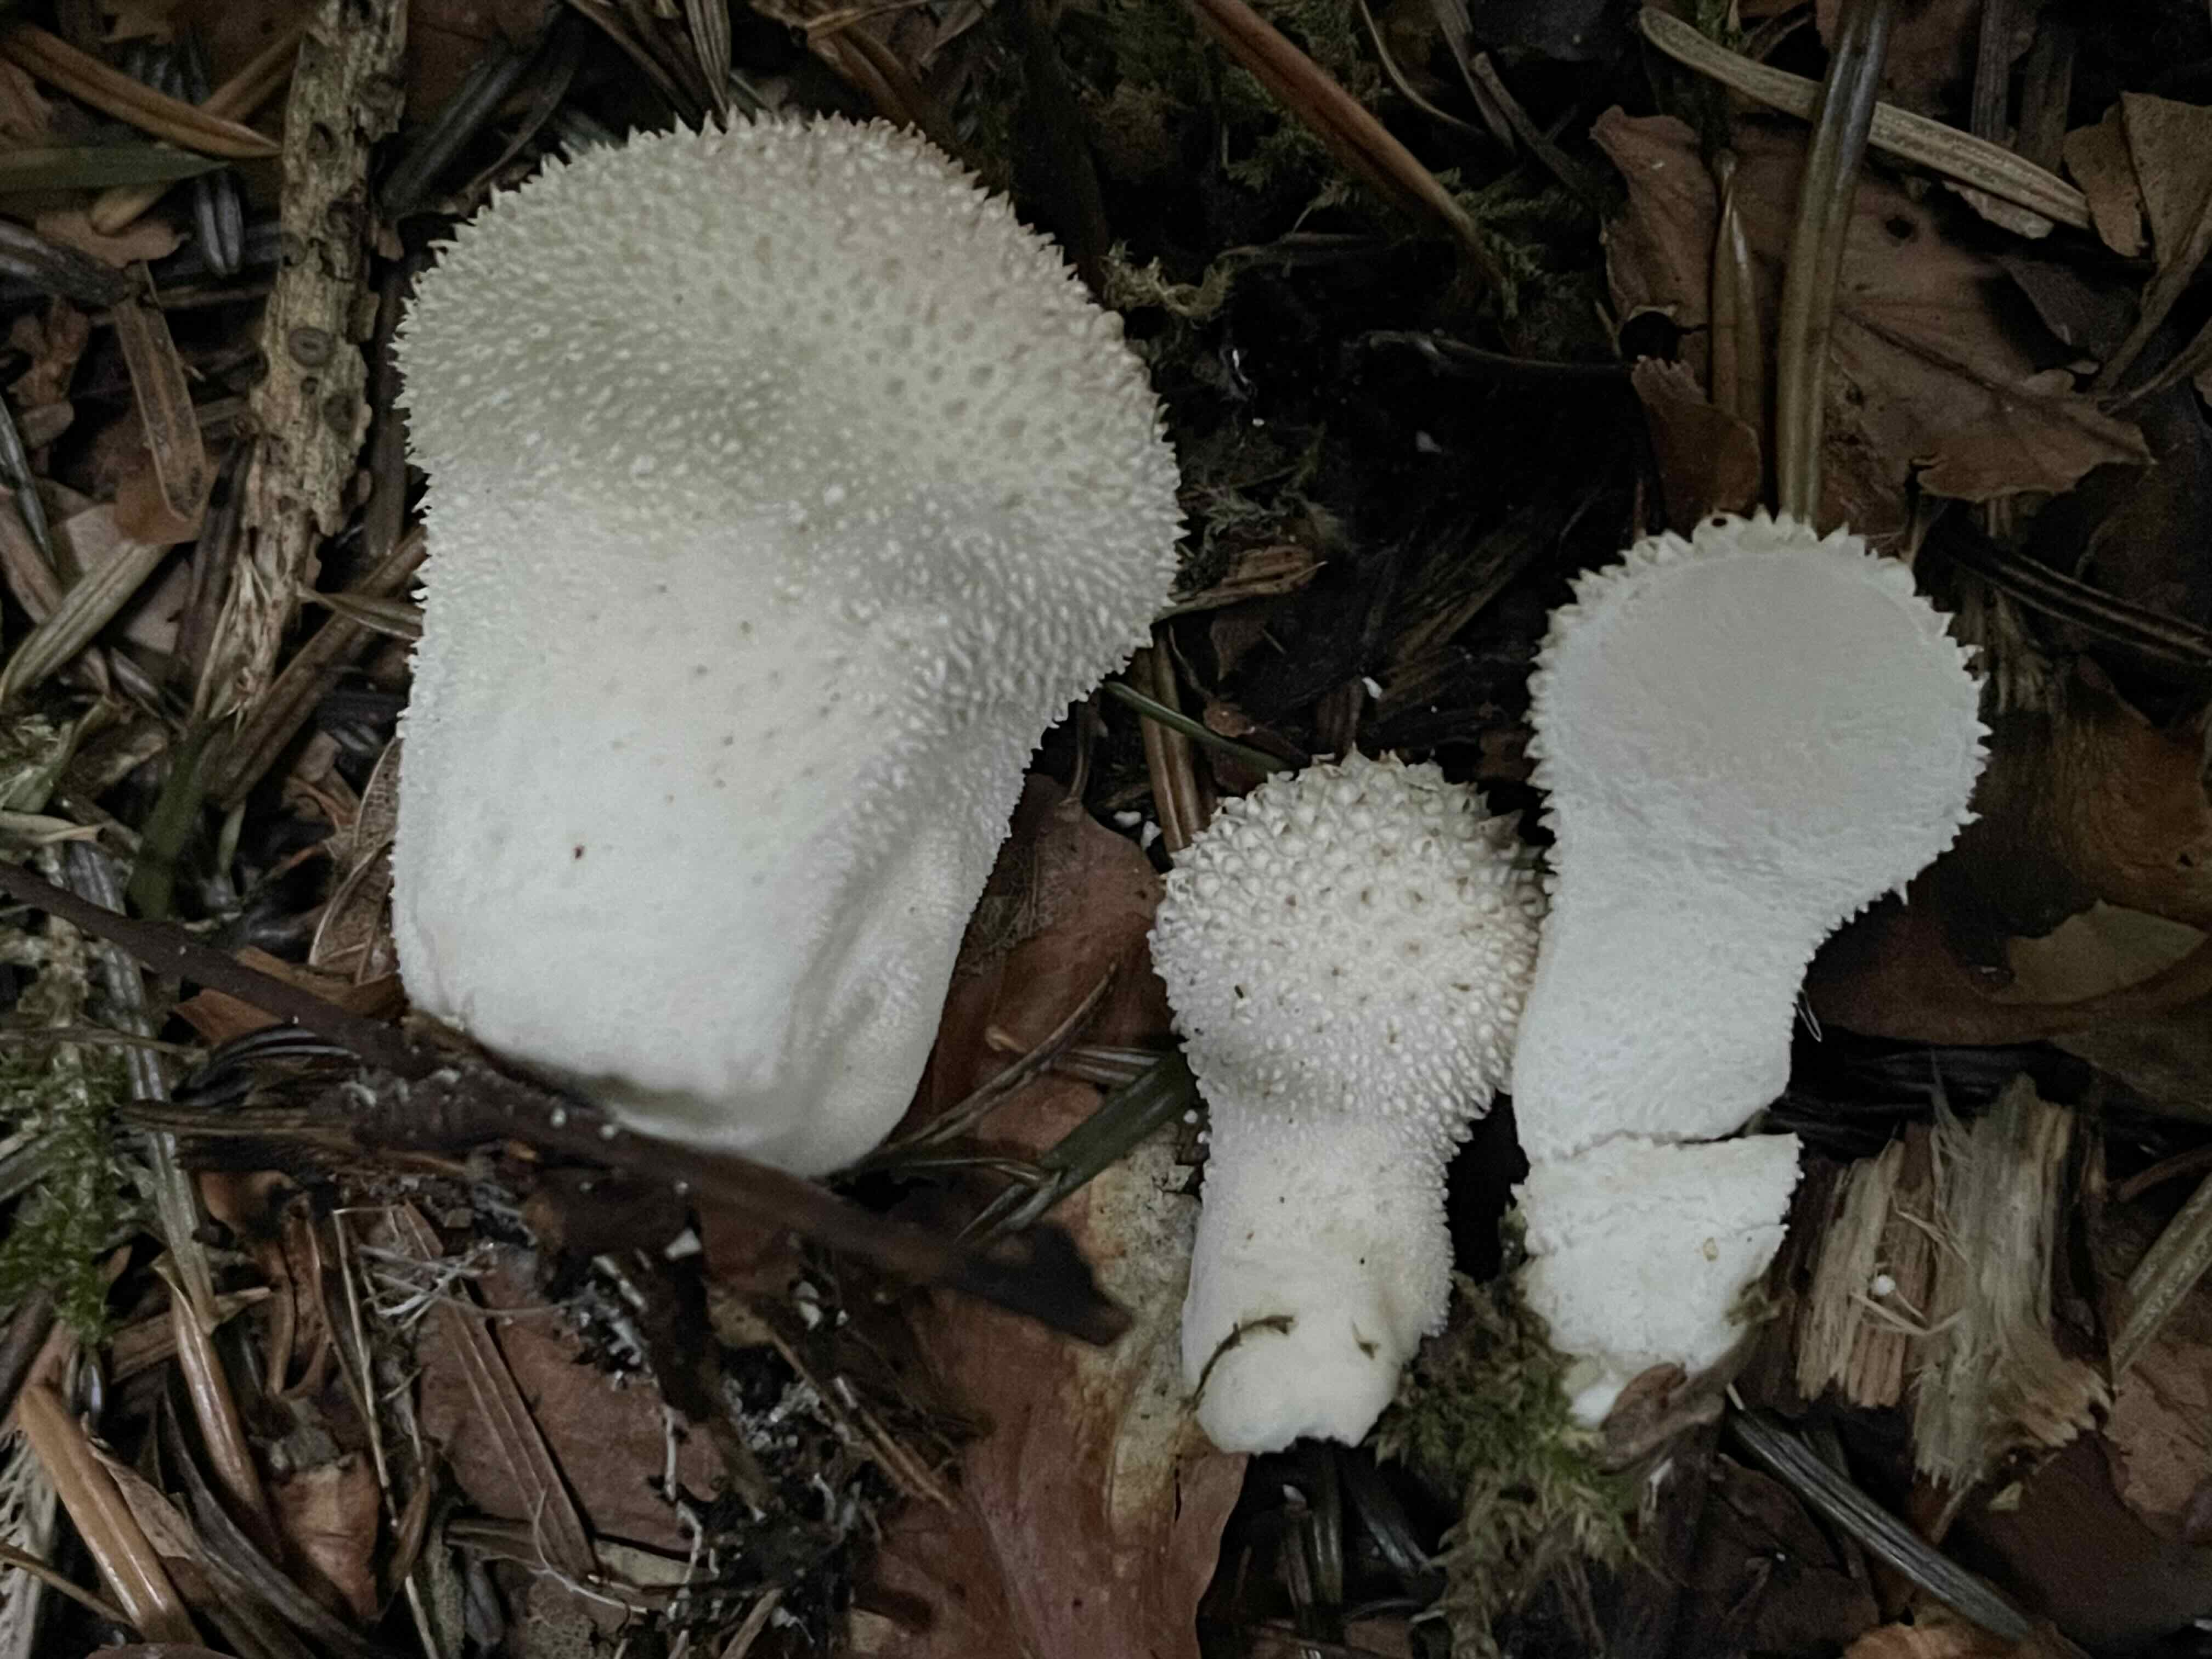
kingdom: Fungi
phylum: Basidiomycota
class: Agaricomycetes
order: Agaricales
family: Lycoperdaceae
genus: Lycoperdon
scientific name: Lycoperdon perlatum
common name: krystal-støvbold
